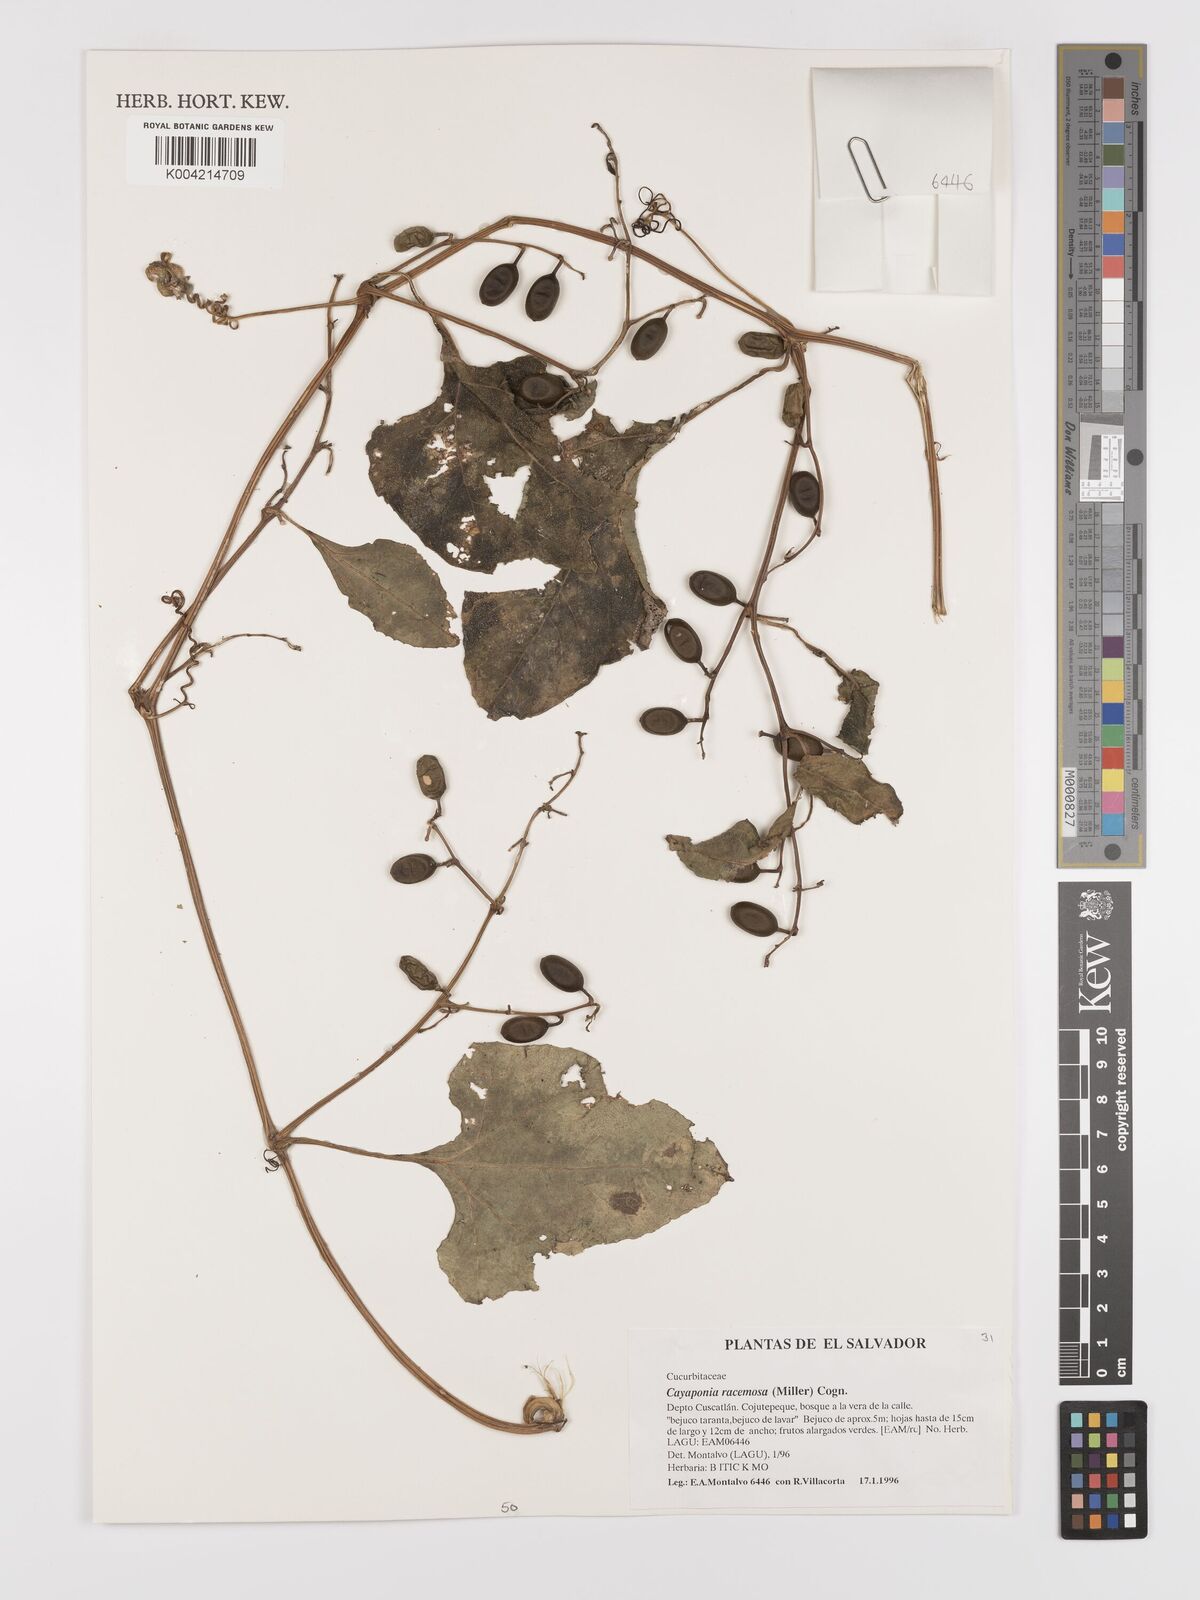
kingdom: Plantae
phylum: Tracheophyta
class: Magnoliopsida
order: Cucurbitales
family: Cucurbitaceae
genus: Cayaponia
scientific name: Cayaponia racemosa
